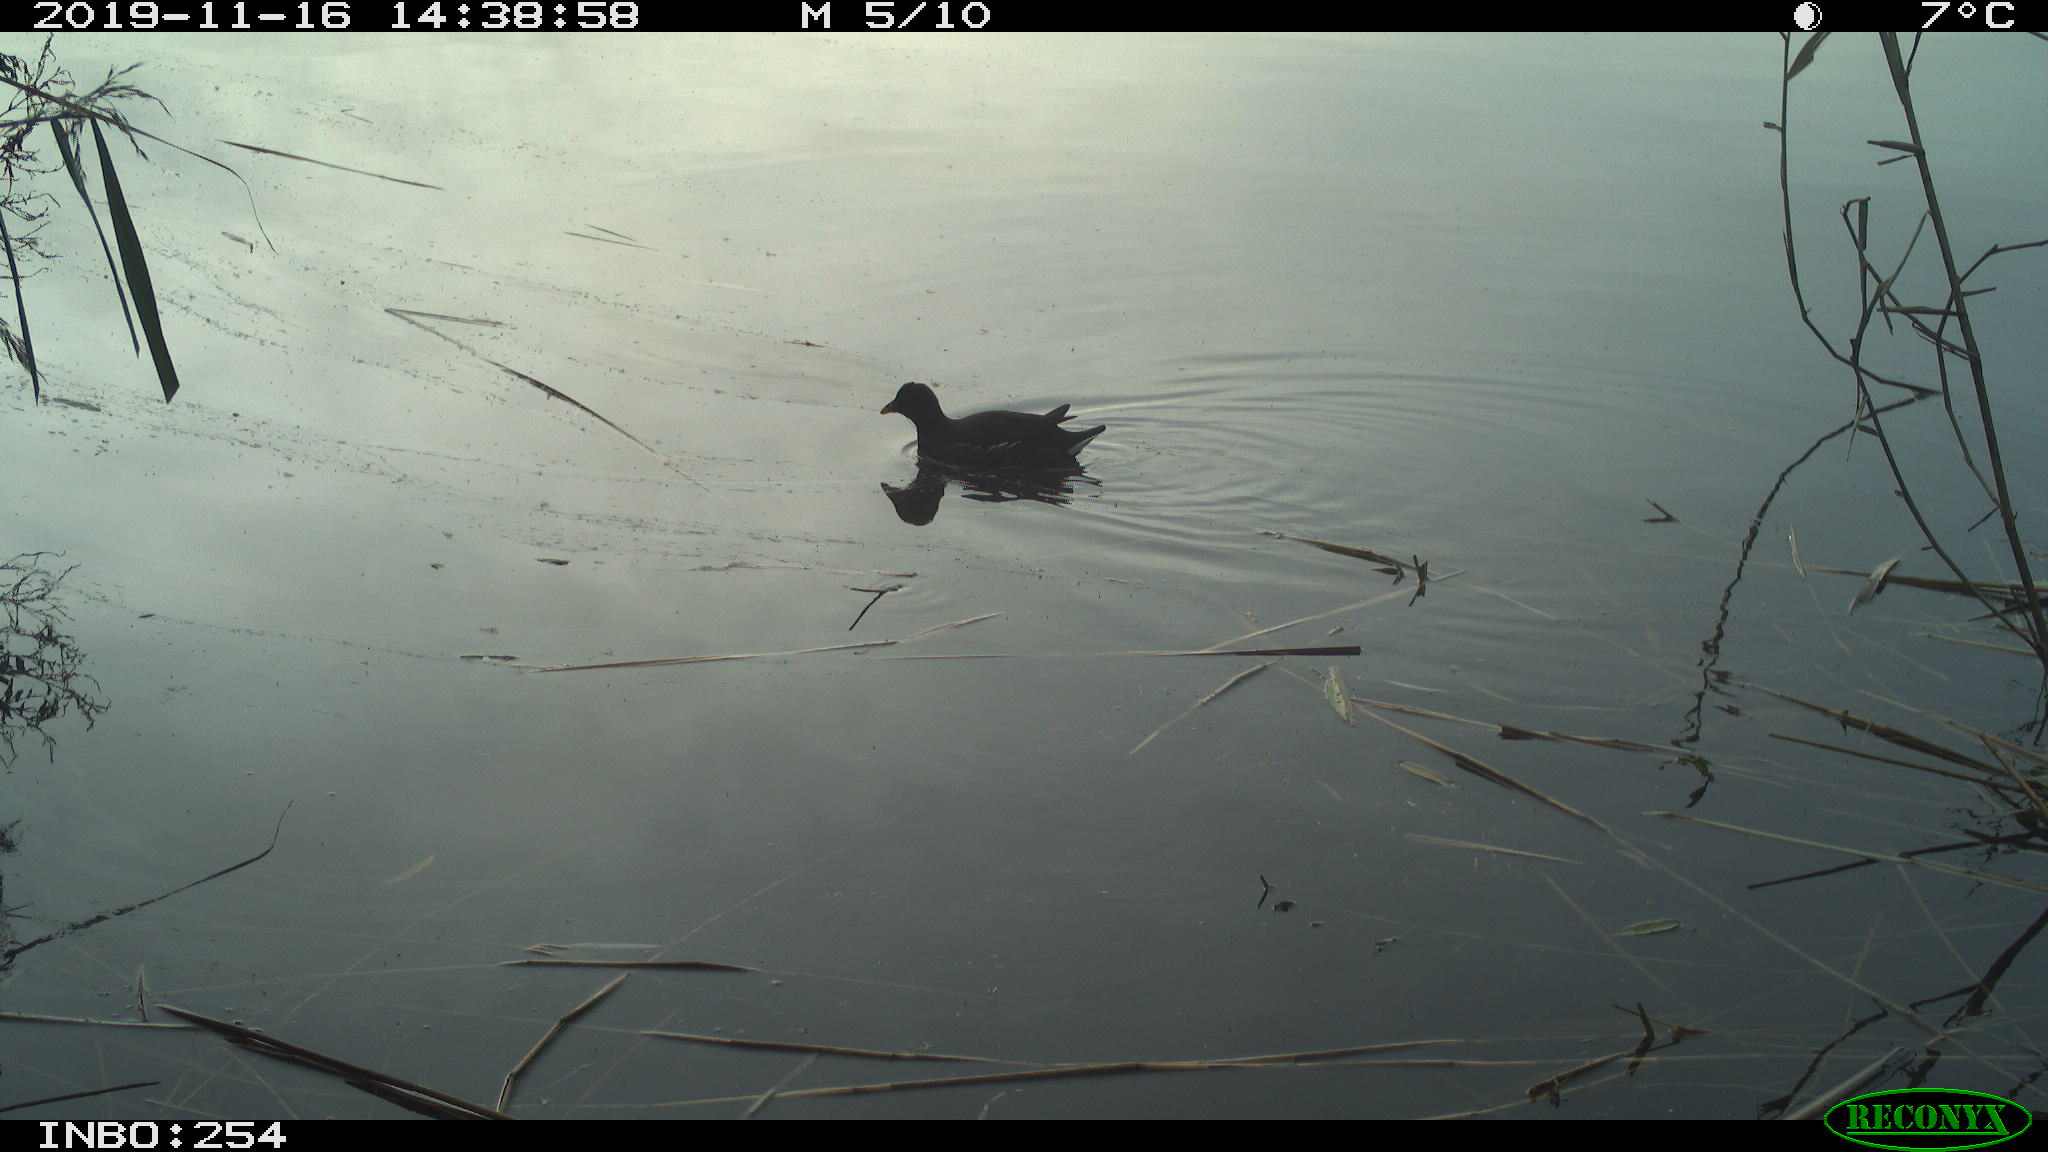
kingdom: Animalia
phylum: Chordata
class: Aves
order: Gruiformes
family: Rallidae
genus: Gallinula
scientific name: Gallinula chloropus
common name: Common moorhen
